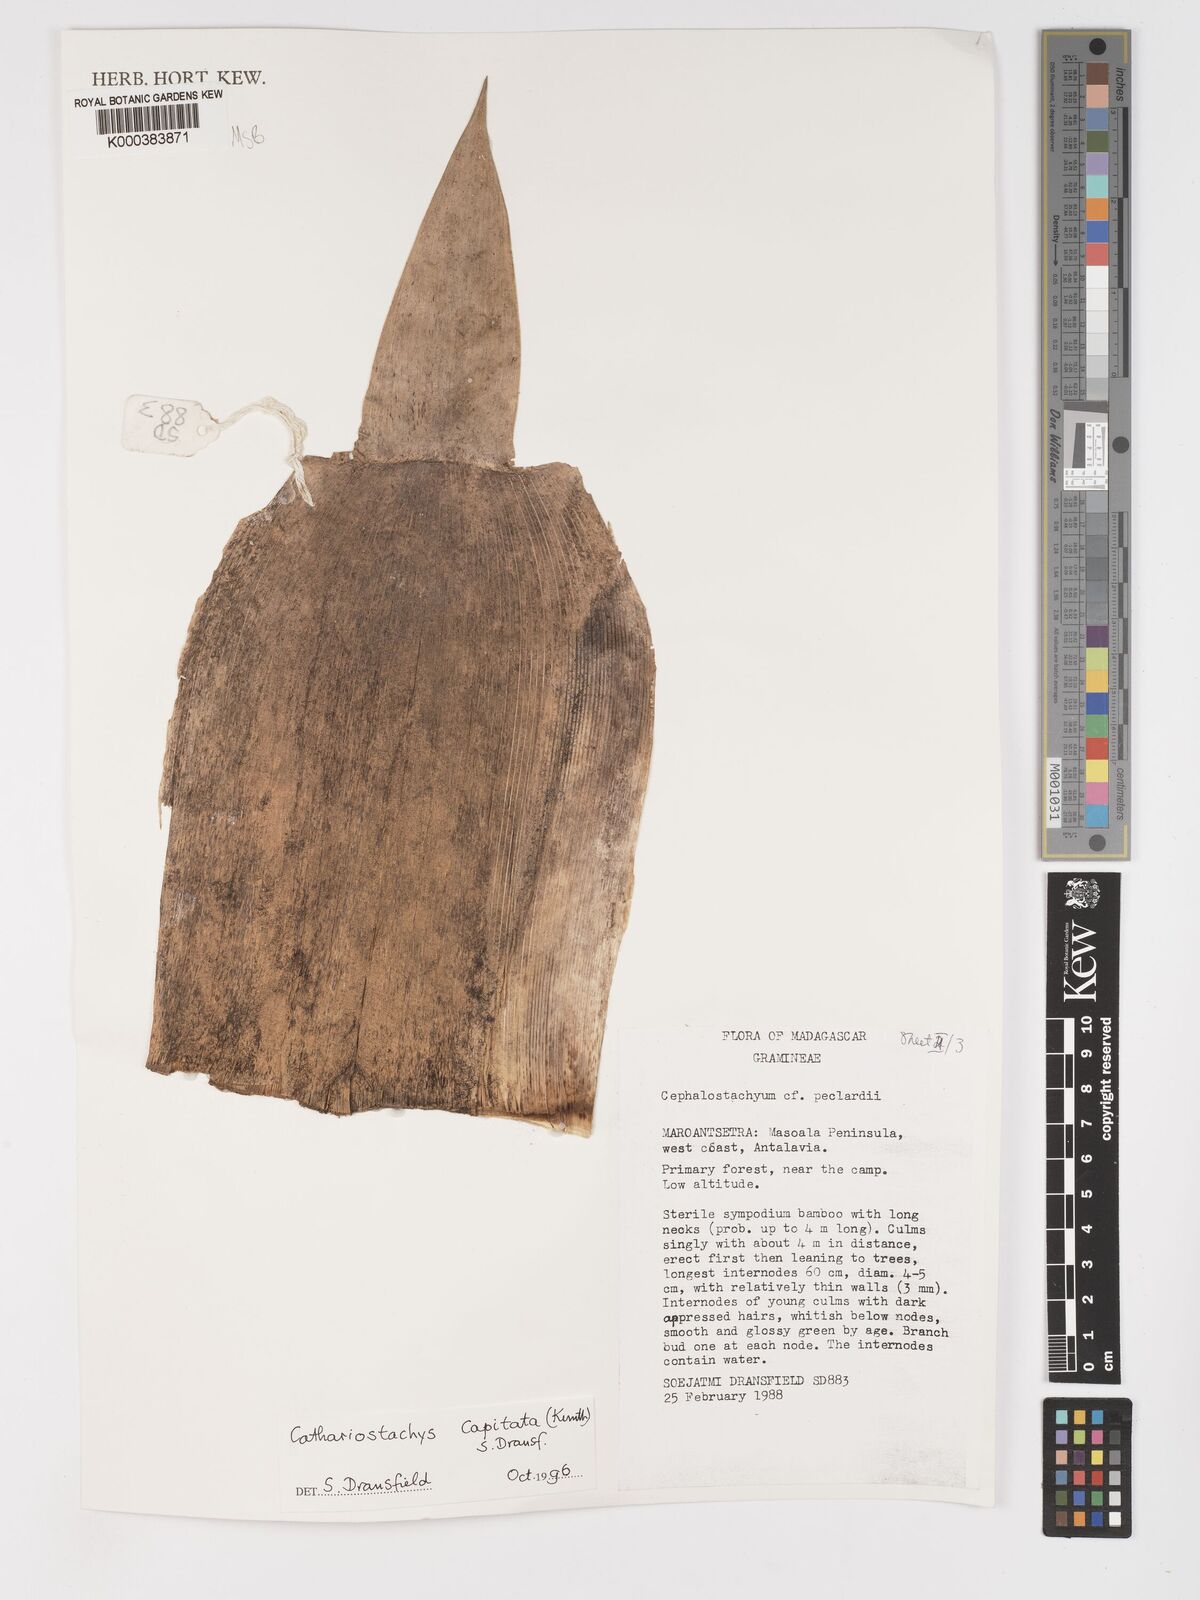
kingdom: Plantae
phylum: Tracheophyta
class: Liliopsida
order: Poales
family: Poaceae
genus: Cathariostachys
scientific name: Cathariostachys capitata
